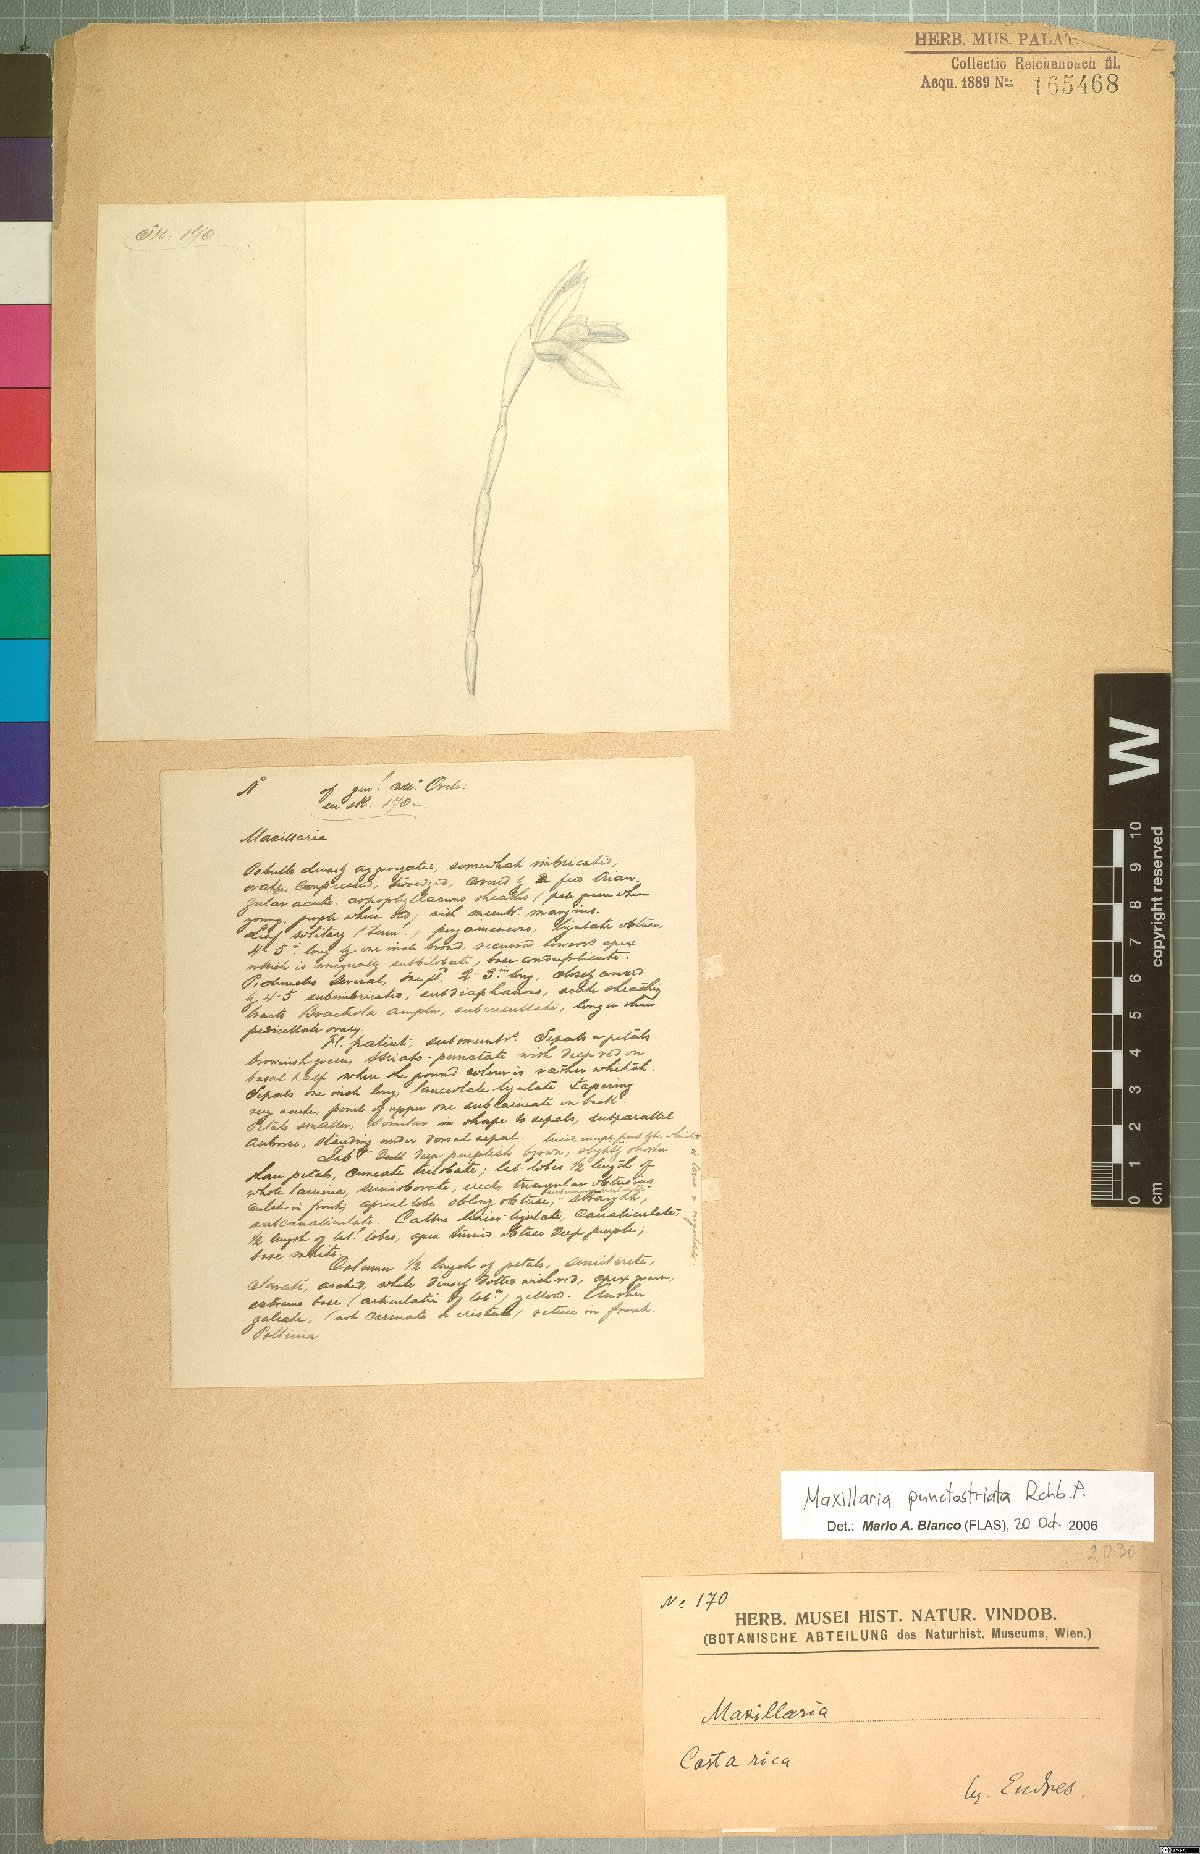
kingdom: Plantae
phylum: Tracheophyta
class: Liliopsida
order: Asparagales
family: Orchidaceae
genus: Maxillaria
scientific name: Maxillaria hematoglossa
